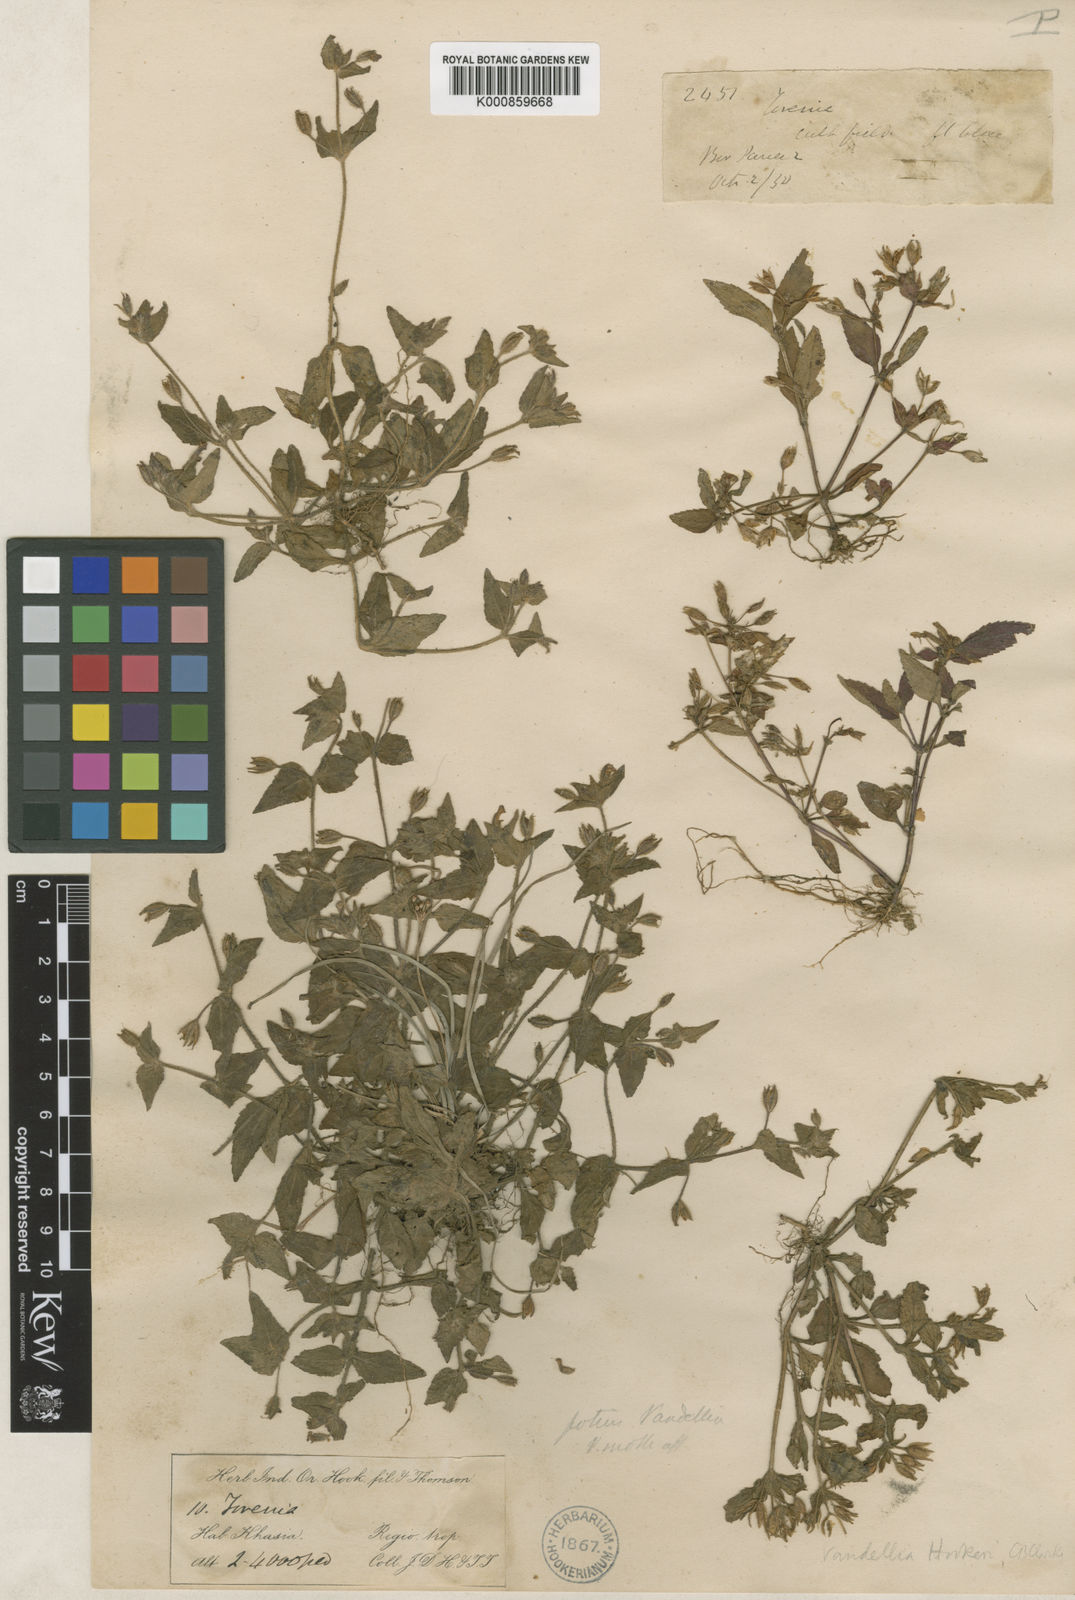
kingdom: Plantae
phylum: Tracheophyta
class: Magnoliopsida
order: Lamiales
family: Linderniaceae
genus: Torenia
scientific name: Torenia hookeri
